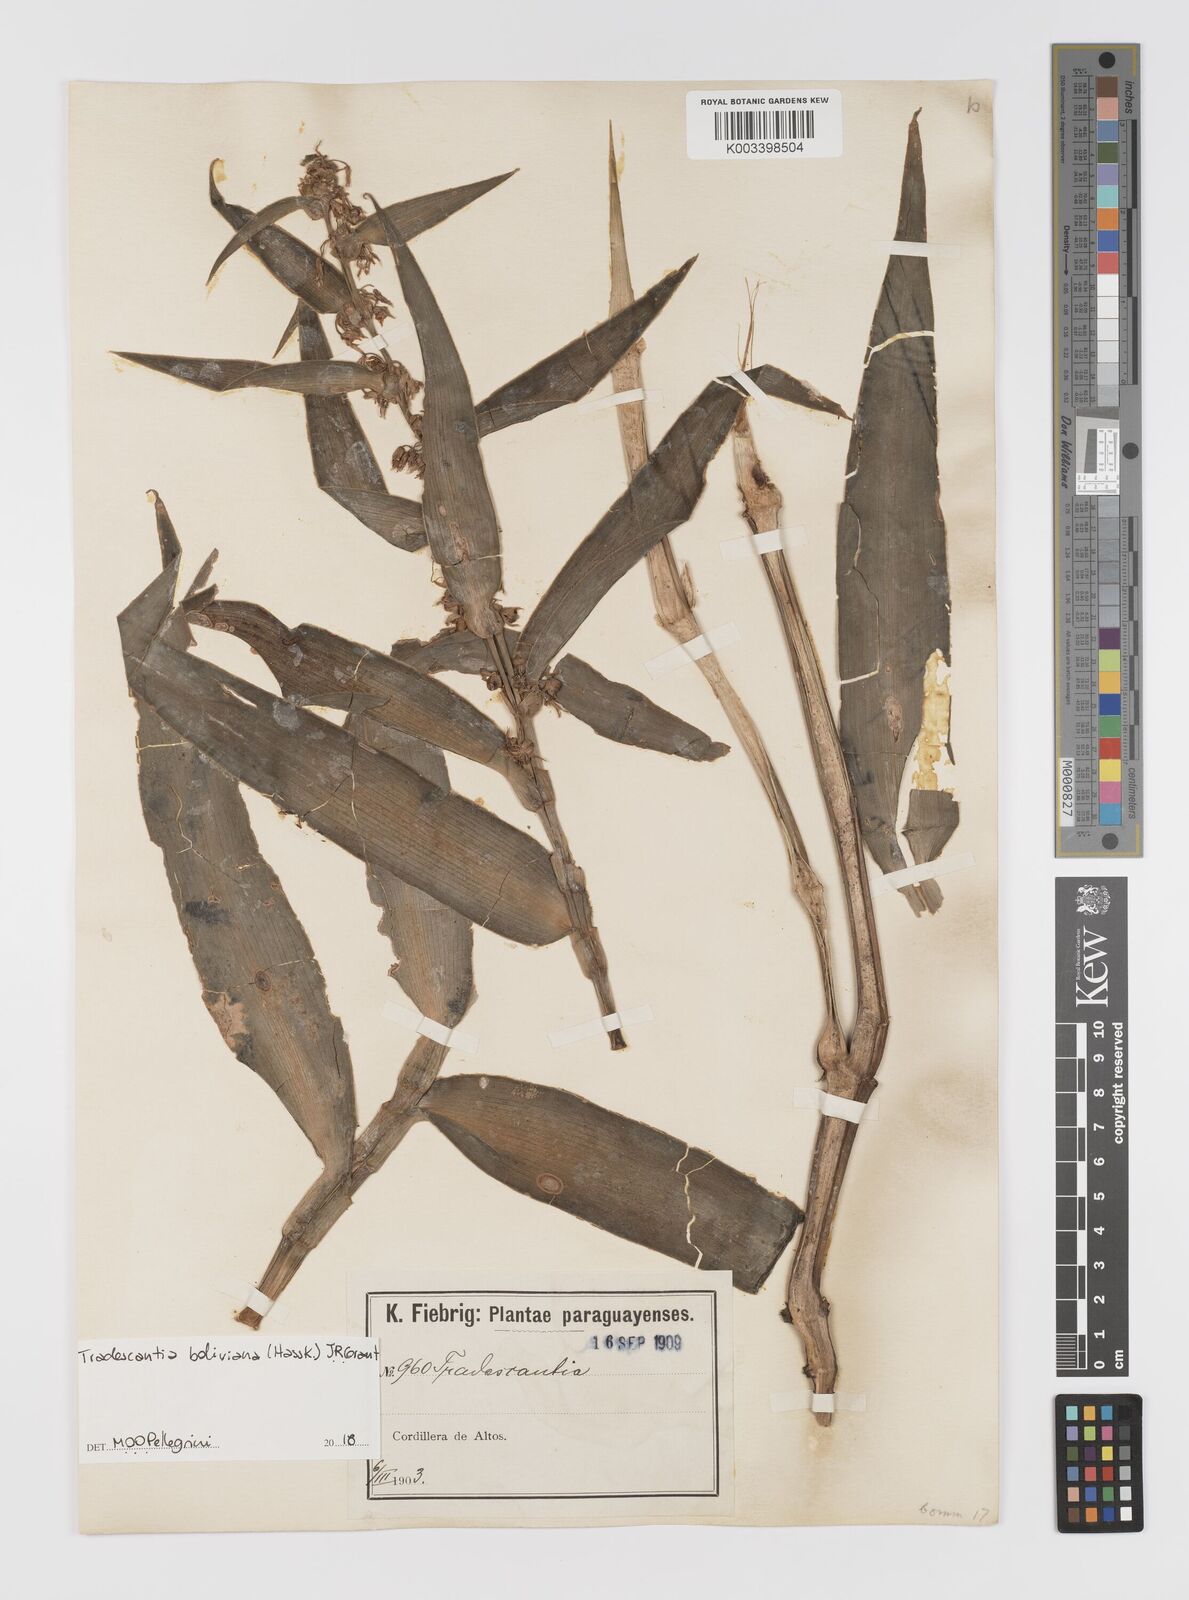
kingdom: Plantae
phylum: Tracheophyta
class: Liliopsida
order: Commelinales
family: Commelinaceae
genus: Tradescantia
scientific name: Tradescantia boliviana
